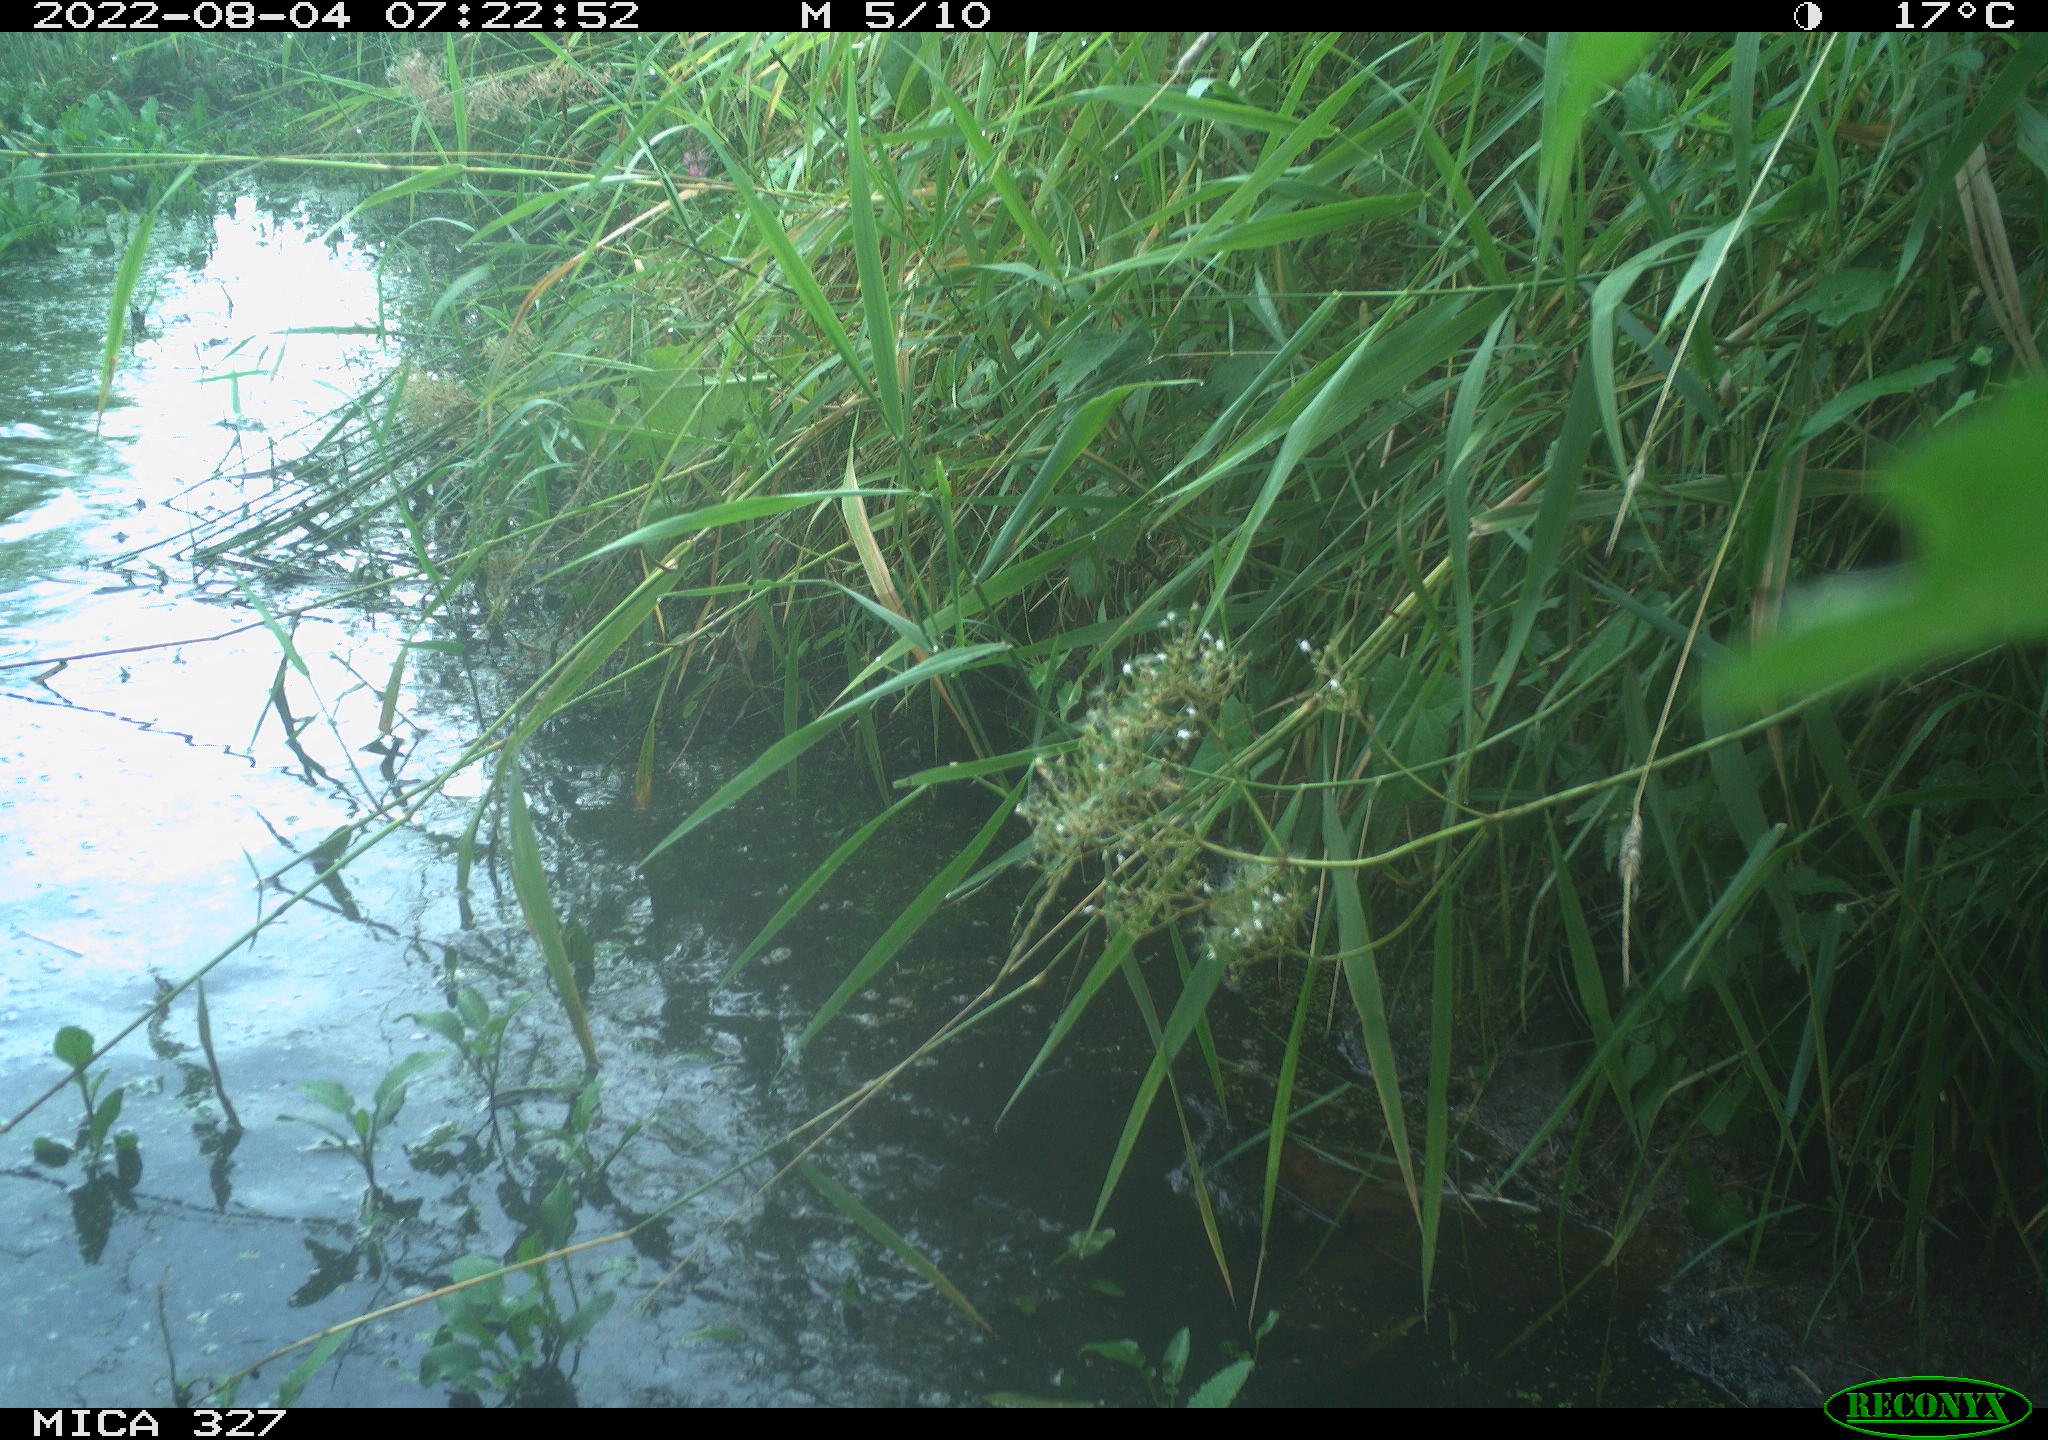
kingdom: Animalia
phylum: Chordata
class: Aves
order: Anseriformes
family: Anatidae
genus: Anas
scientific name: Anas
